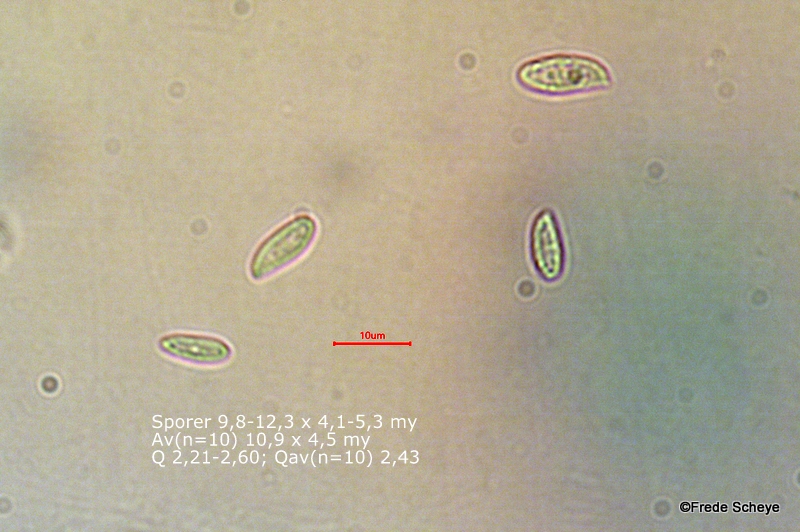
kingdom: Fungi
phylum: Basidiomycota
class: Agaricomycetes
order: Agaricales
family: Physalacriaceae
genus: Flammulina
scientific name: Flammulina elastica
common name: pile-fløjlsfod
